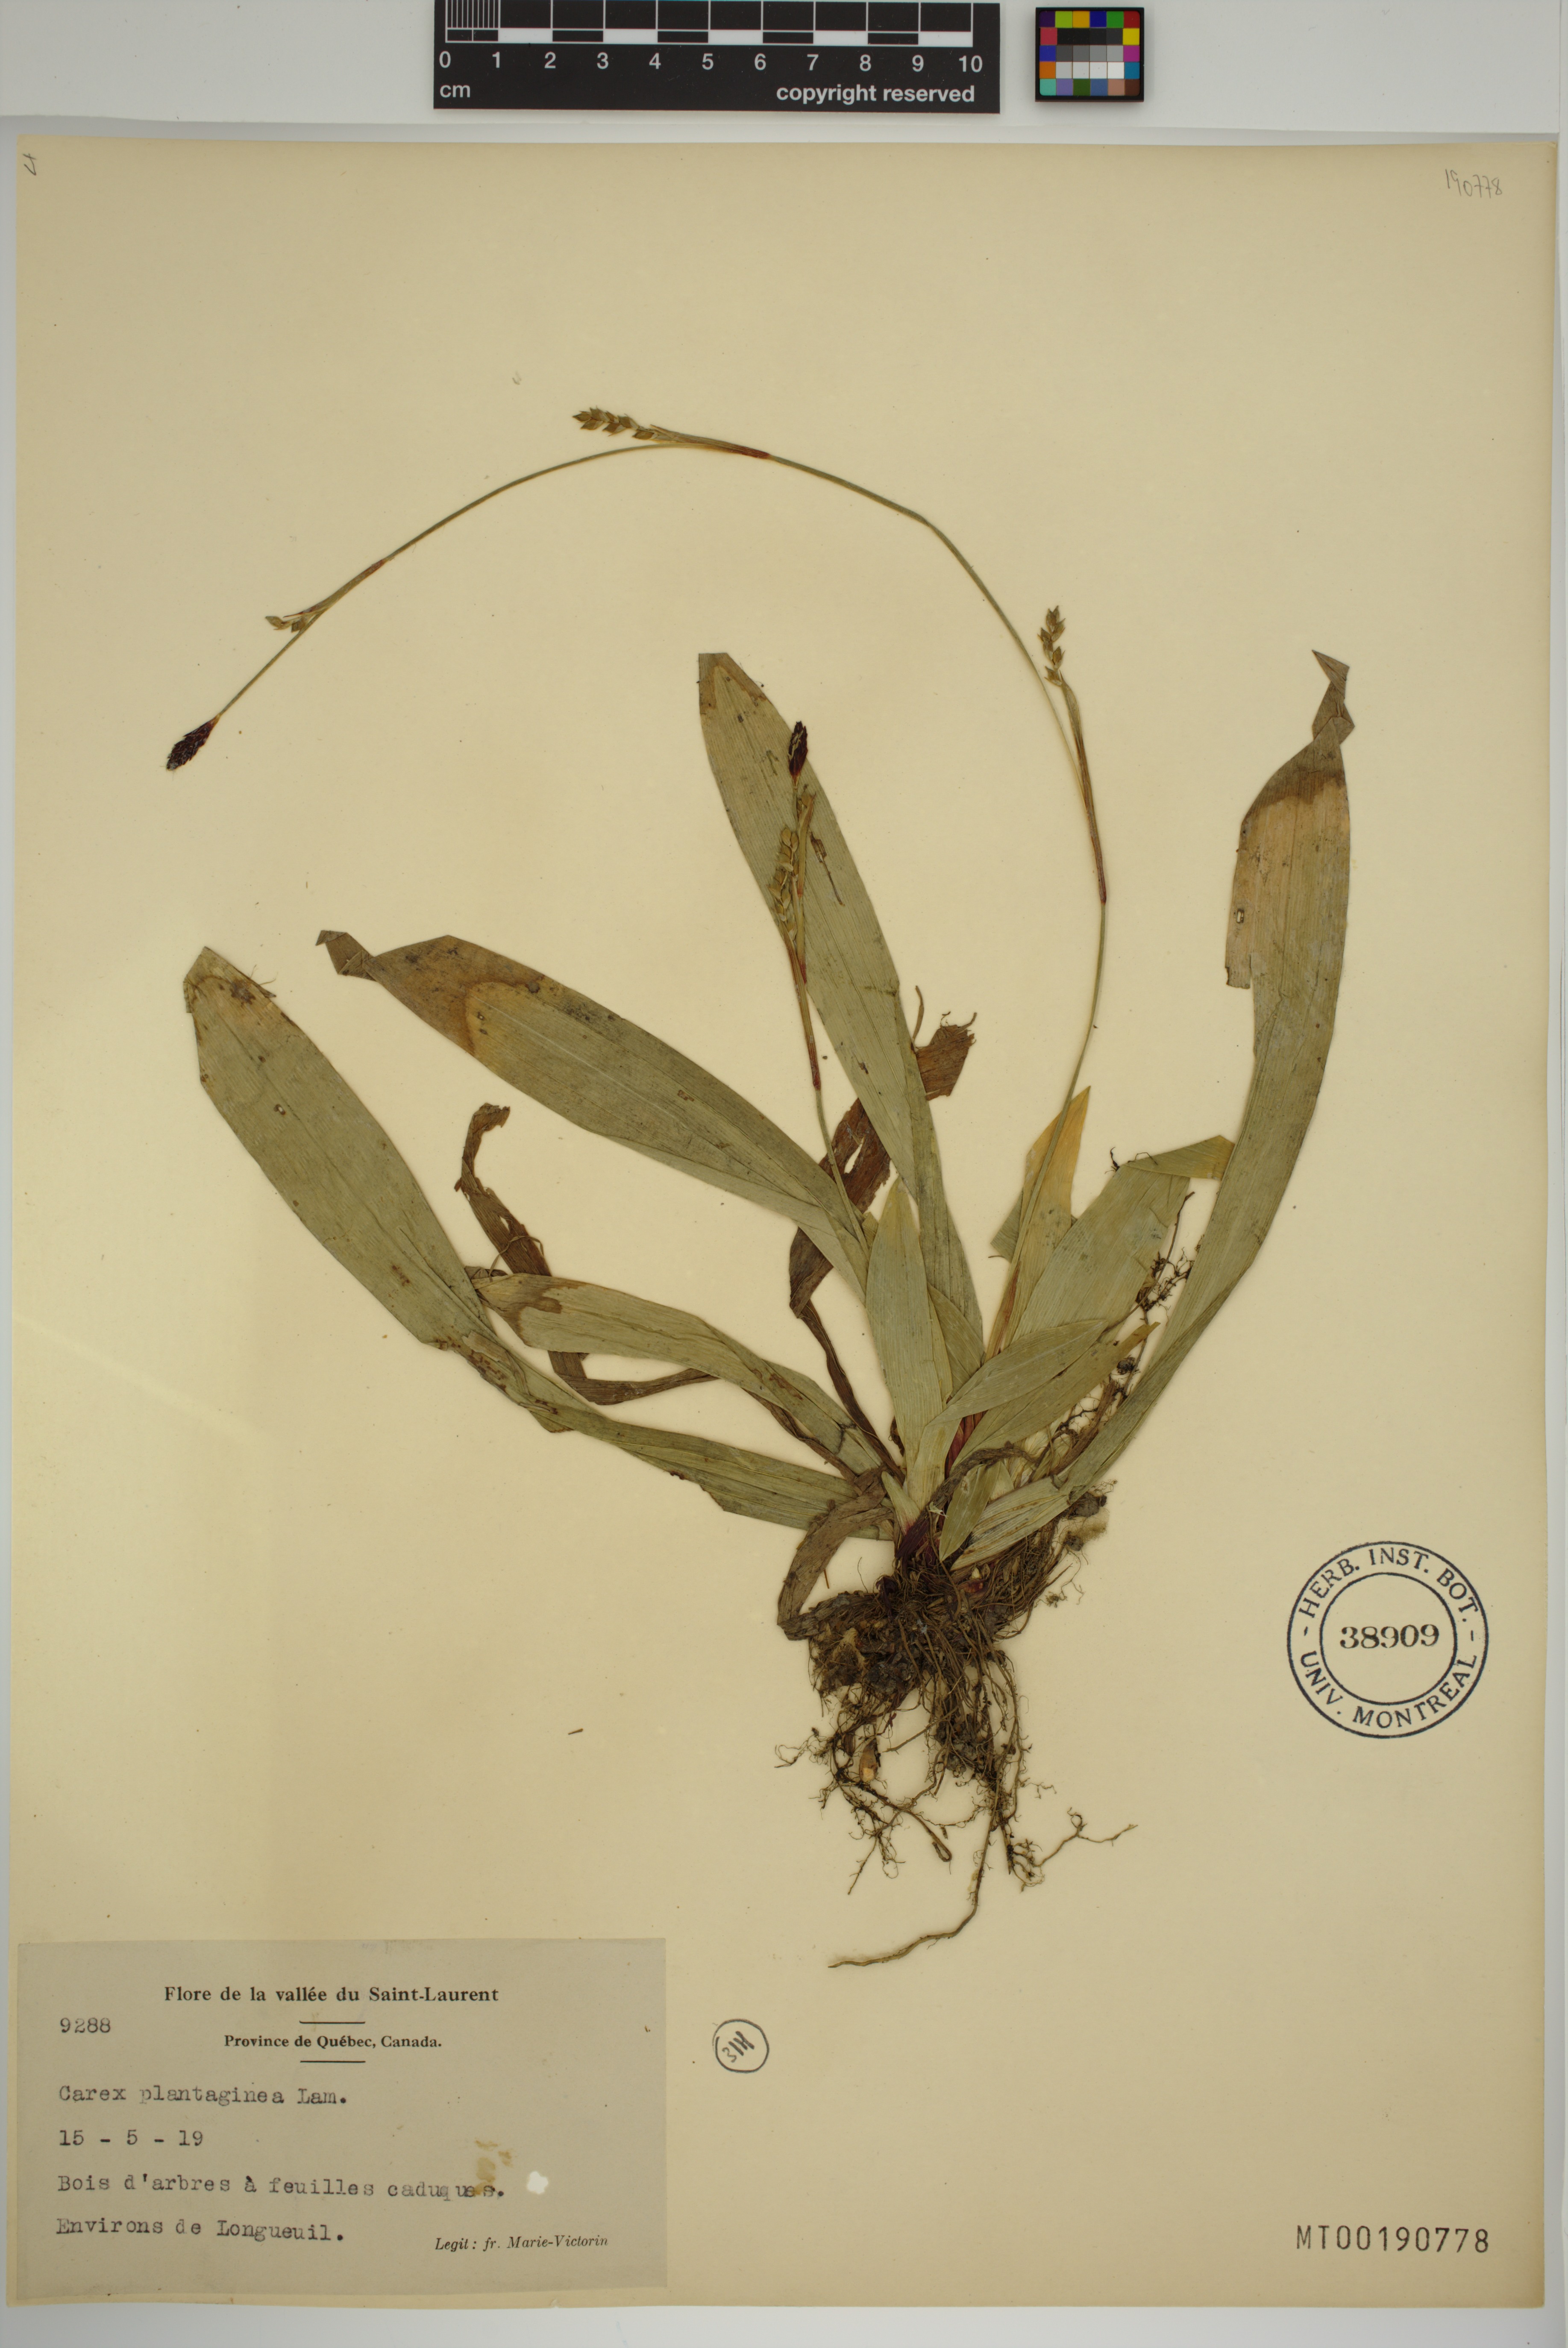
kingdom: Plantae
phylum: Tracheophyta
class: Liliopsida
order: Poales
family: Cyperaceae
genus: Carex
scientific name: Carex plantaginea
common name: Plantain-leaved sedge
